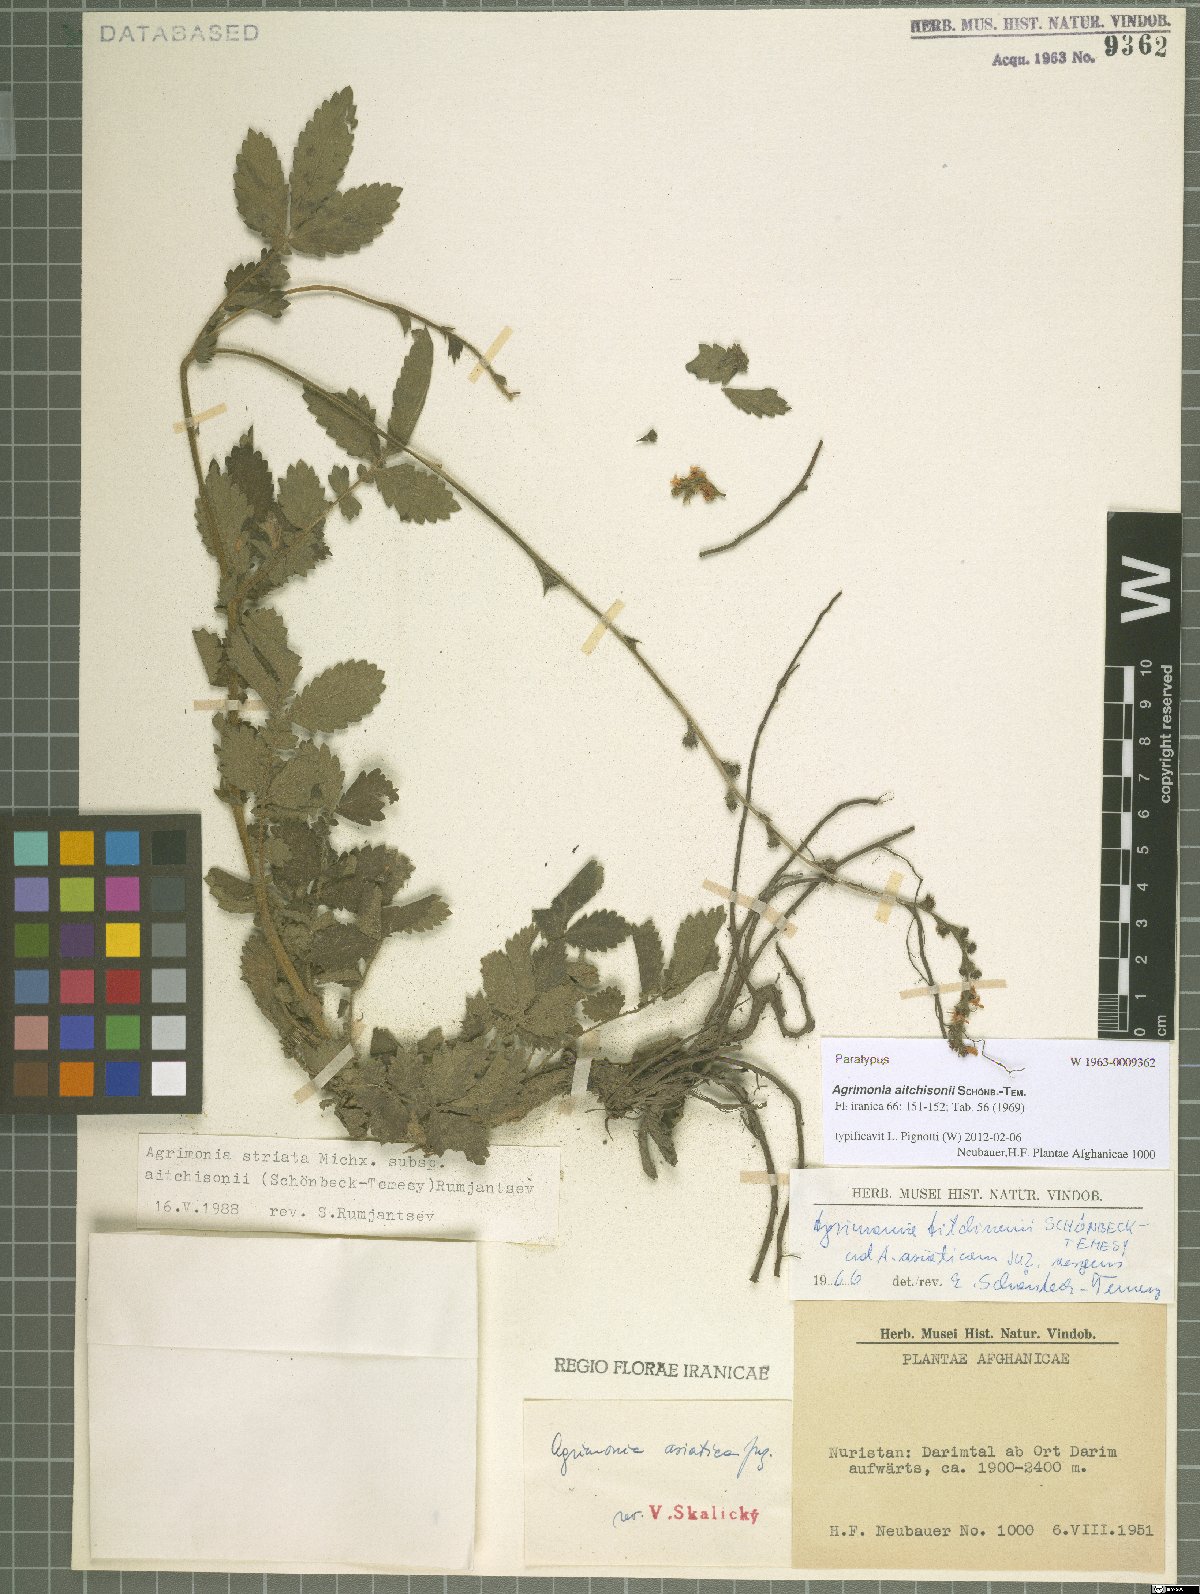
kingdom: Plantae
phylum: Tracheophyta
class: Magnoliopsida
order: Rosales
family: Rosaceae
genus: Agrimonia
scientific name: Agrimonia aitchisonii
